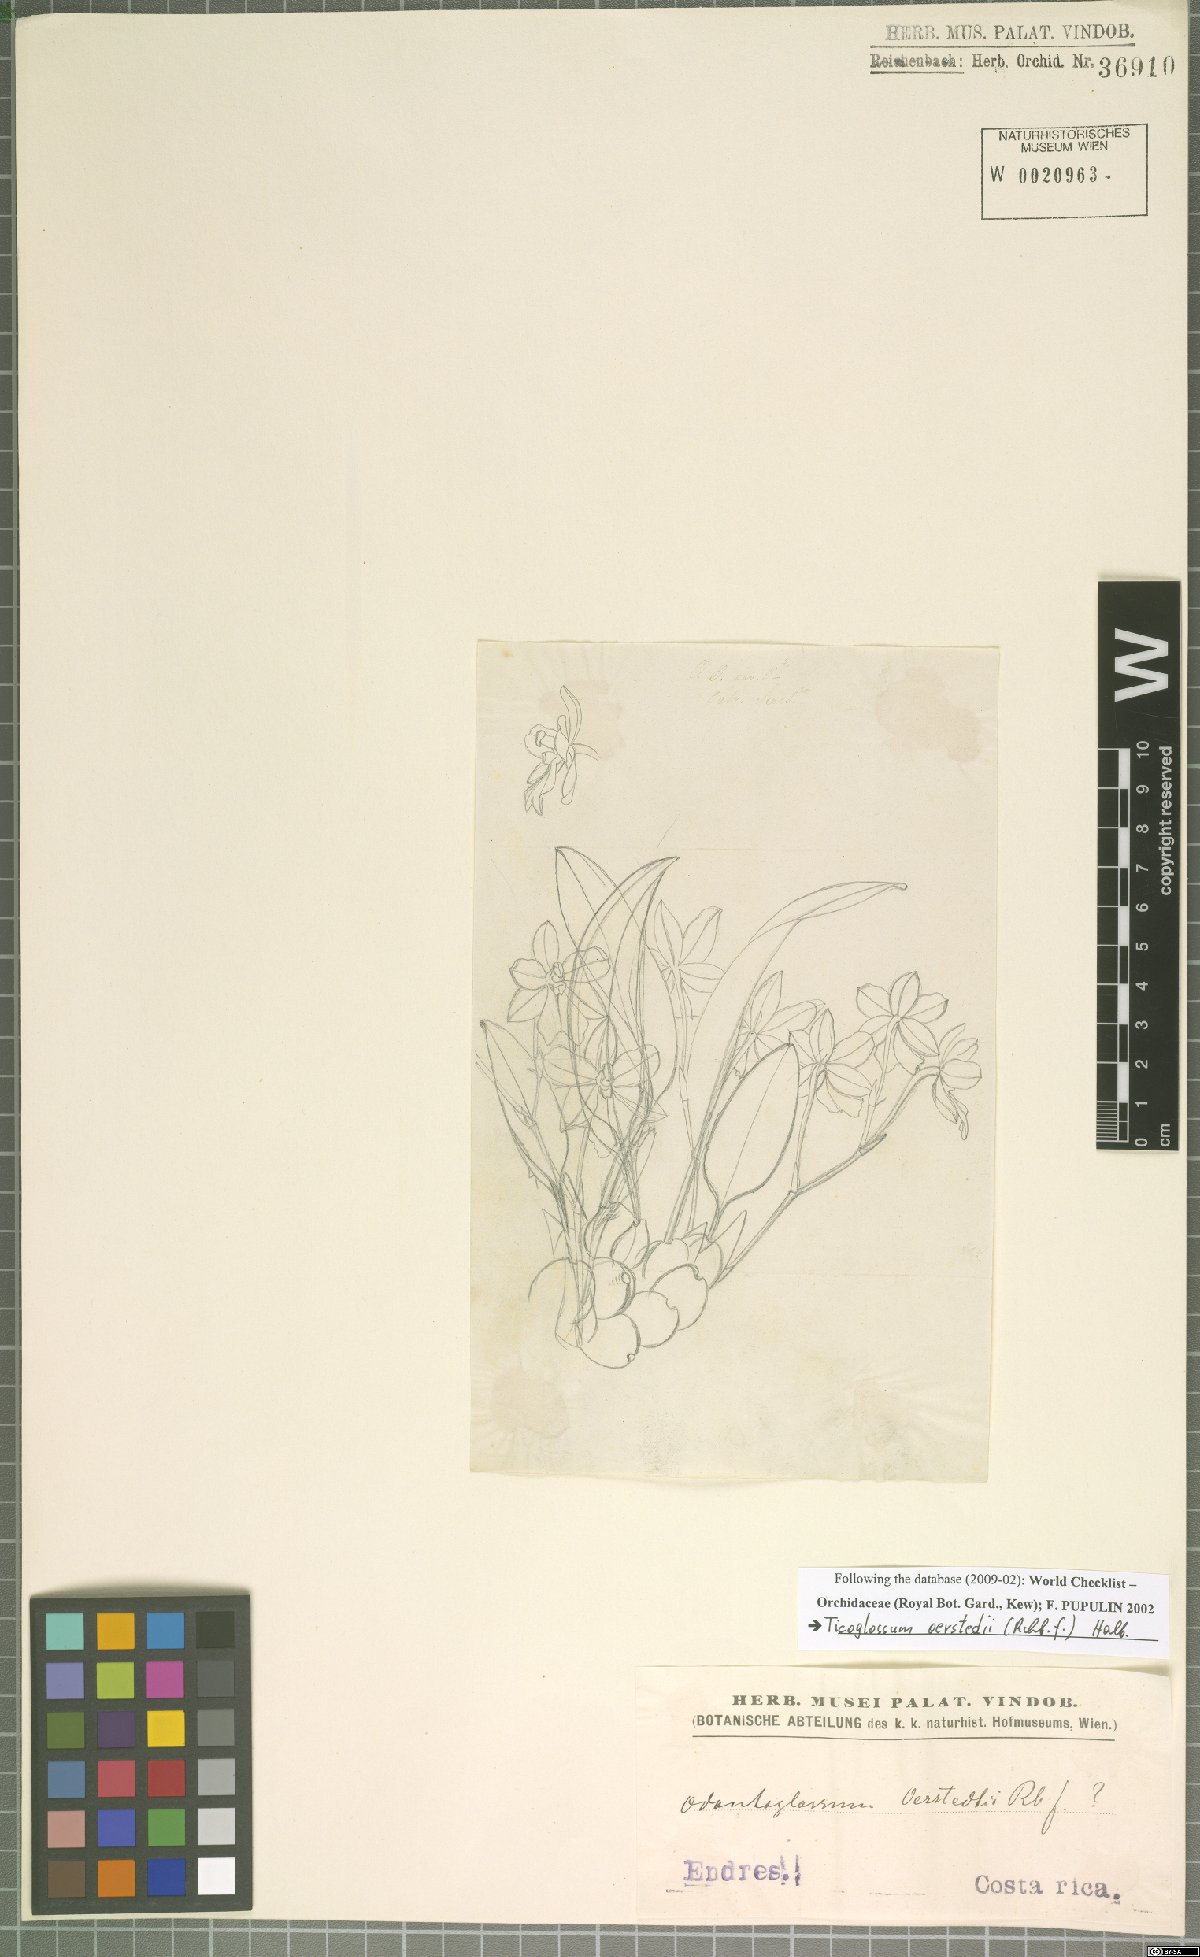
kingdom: Plantae
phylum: Tracheophyta
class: Liliopsida
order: Asparagales
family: Orchidaceae
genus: Rossioglossum
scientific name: Rossioglossum oerstedii
